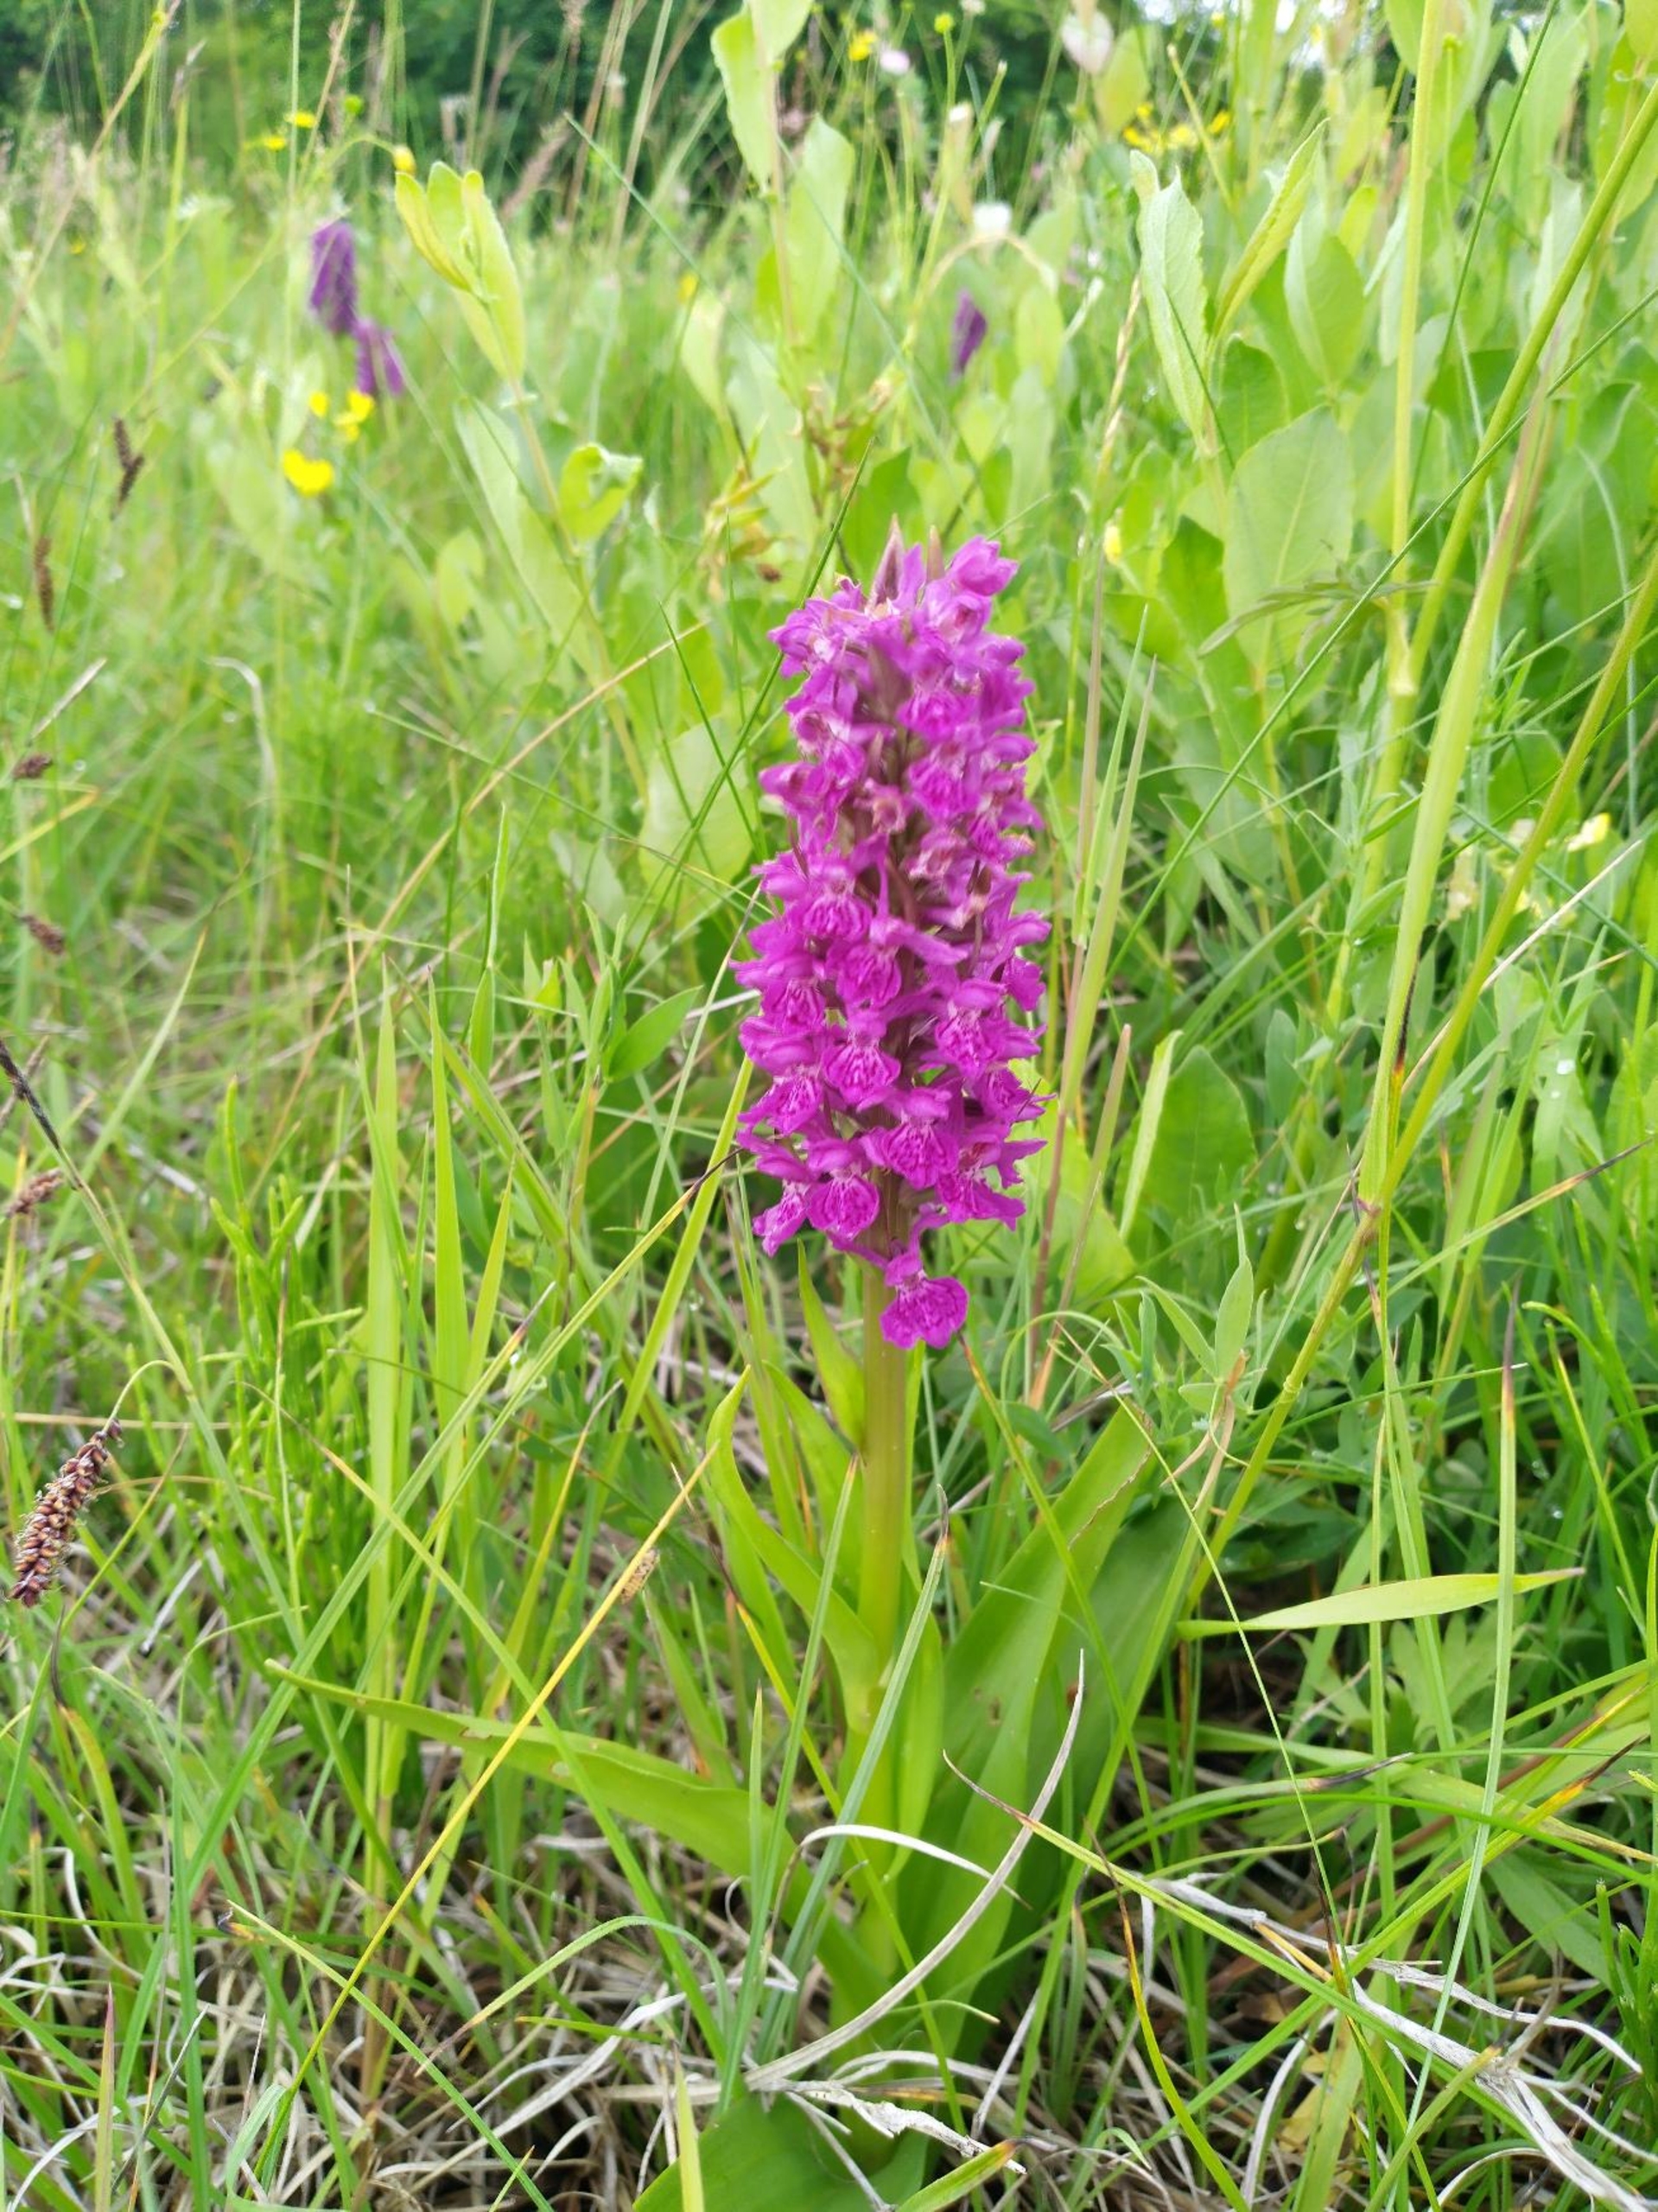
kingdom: Plantae
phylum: Tracheophyta
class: Liliopsida
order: Asparagales
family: Orchidaceae
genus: Dactylorhiza
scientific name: Dactylorhiza majalis
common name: Purpur-gøgeurt
